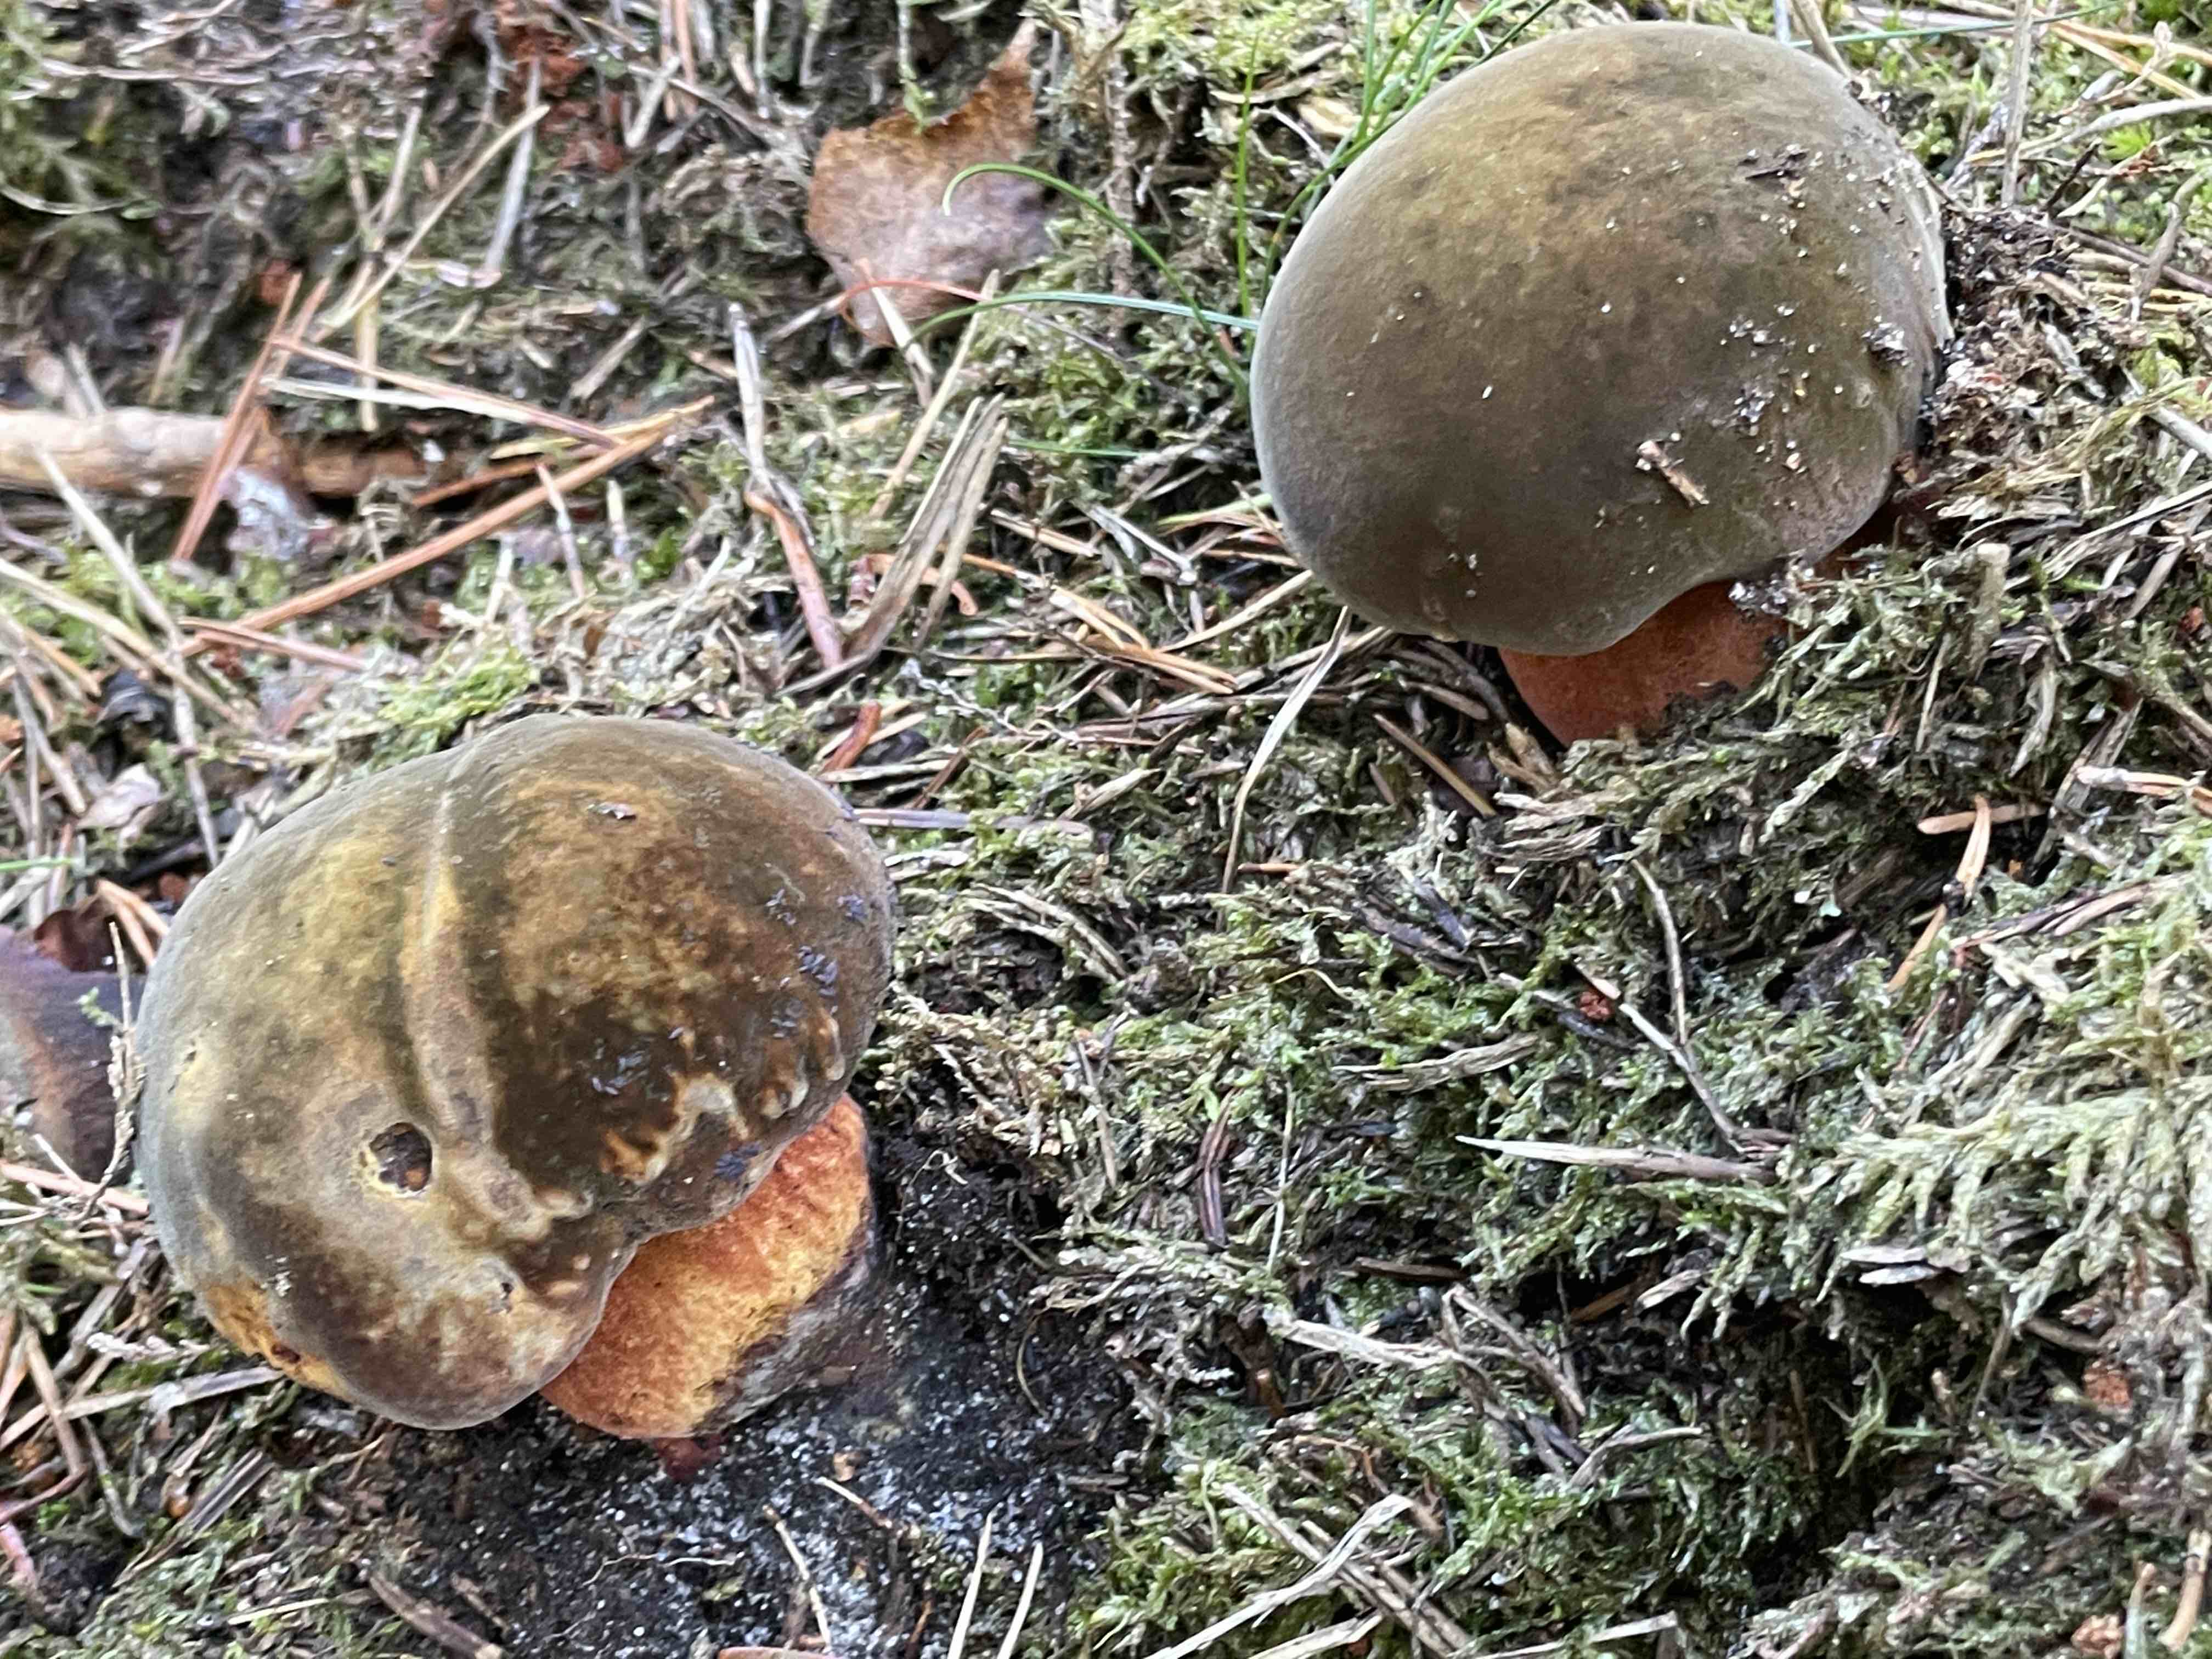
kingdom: Fungi
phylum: Basidiomycota
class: Agaricomycetes
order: Boletales
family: Boletaceae
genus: Neoboletus
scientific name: Neoboletus erythropus
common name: punktstokket indigorørhat
